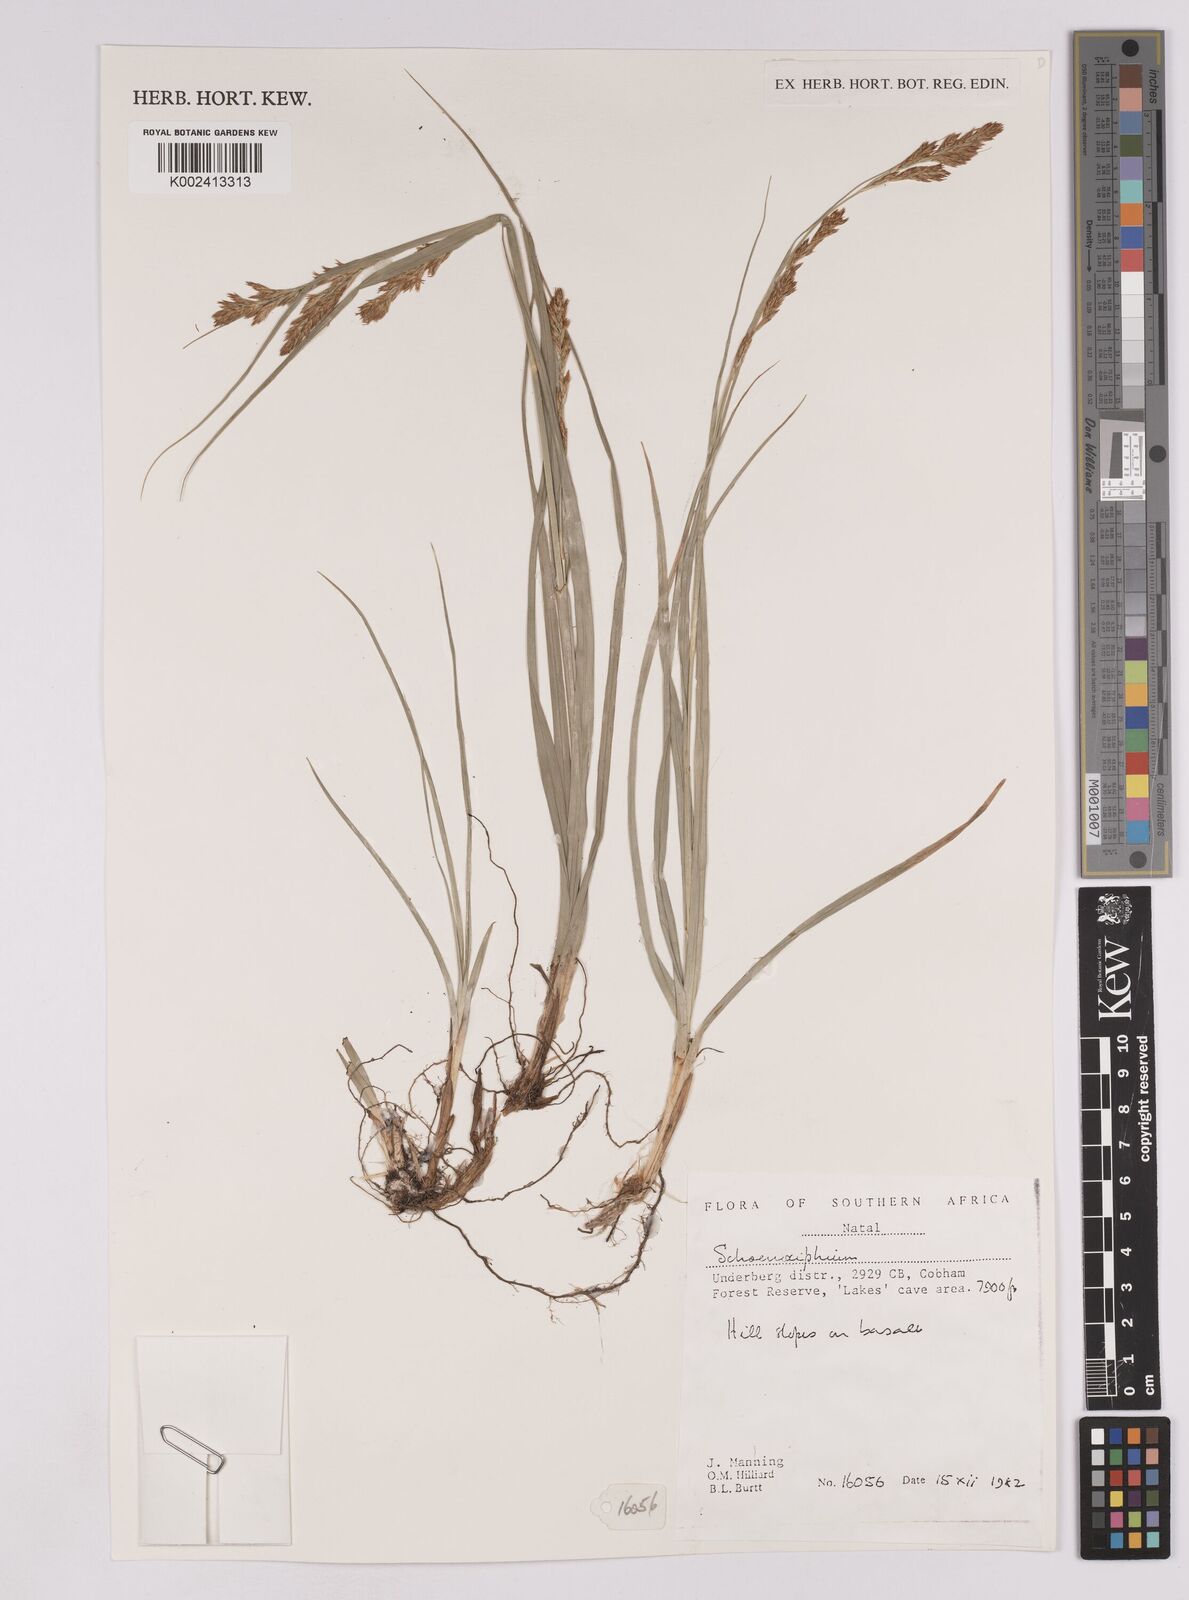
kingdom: Plantae
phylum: Tracheophyta
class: Liliopsida
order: Poales
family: Cyperaceae
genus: Carex
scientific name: Carex
